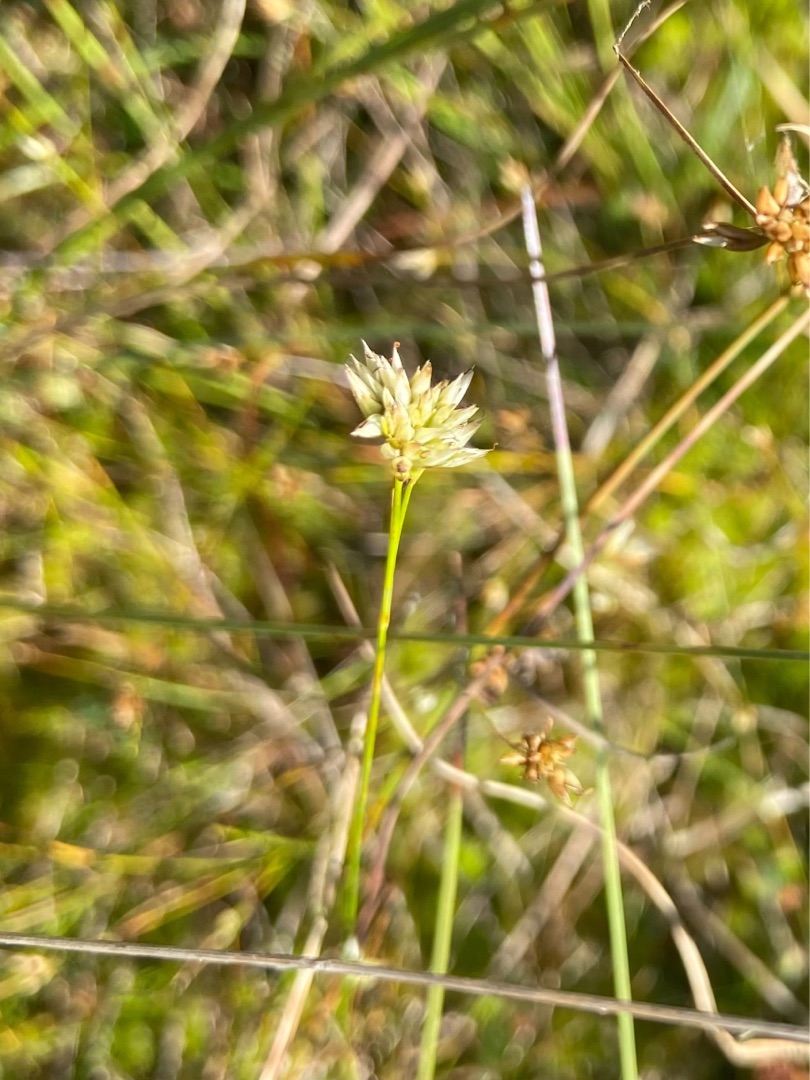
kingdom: Plantae
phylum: Tracheophyta
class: Liliopsida
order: Poales
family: Cyperaceae
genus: Rhynchospora
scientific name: Rhynchospora alba
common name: Hvid næbfrø
